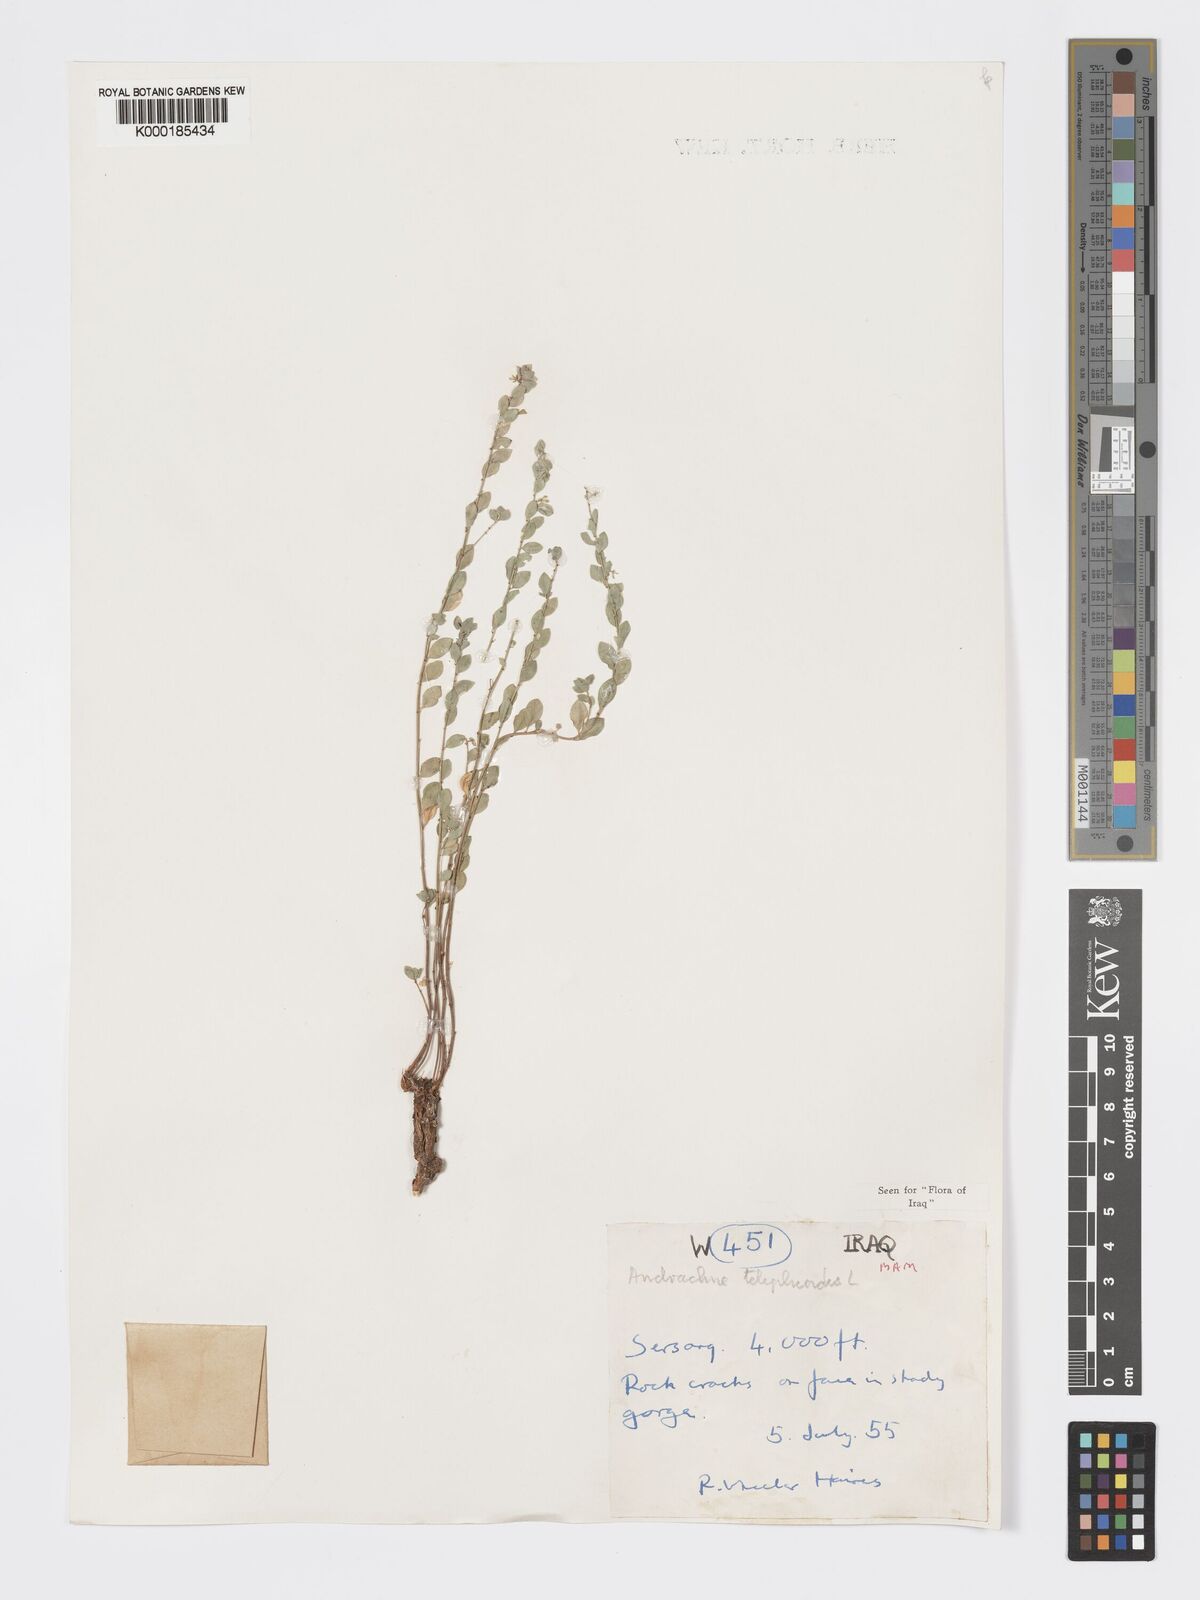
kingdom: Plantae
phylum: Tracheophyta
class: Magnoliopsida
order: Malpighiales
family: Phyllanthaceae
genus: Andrachne
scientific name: Andrachne telephioides
